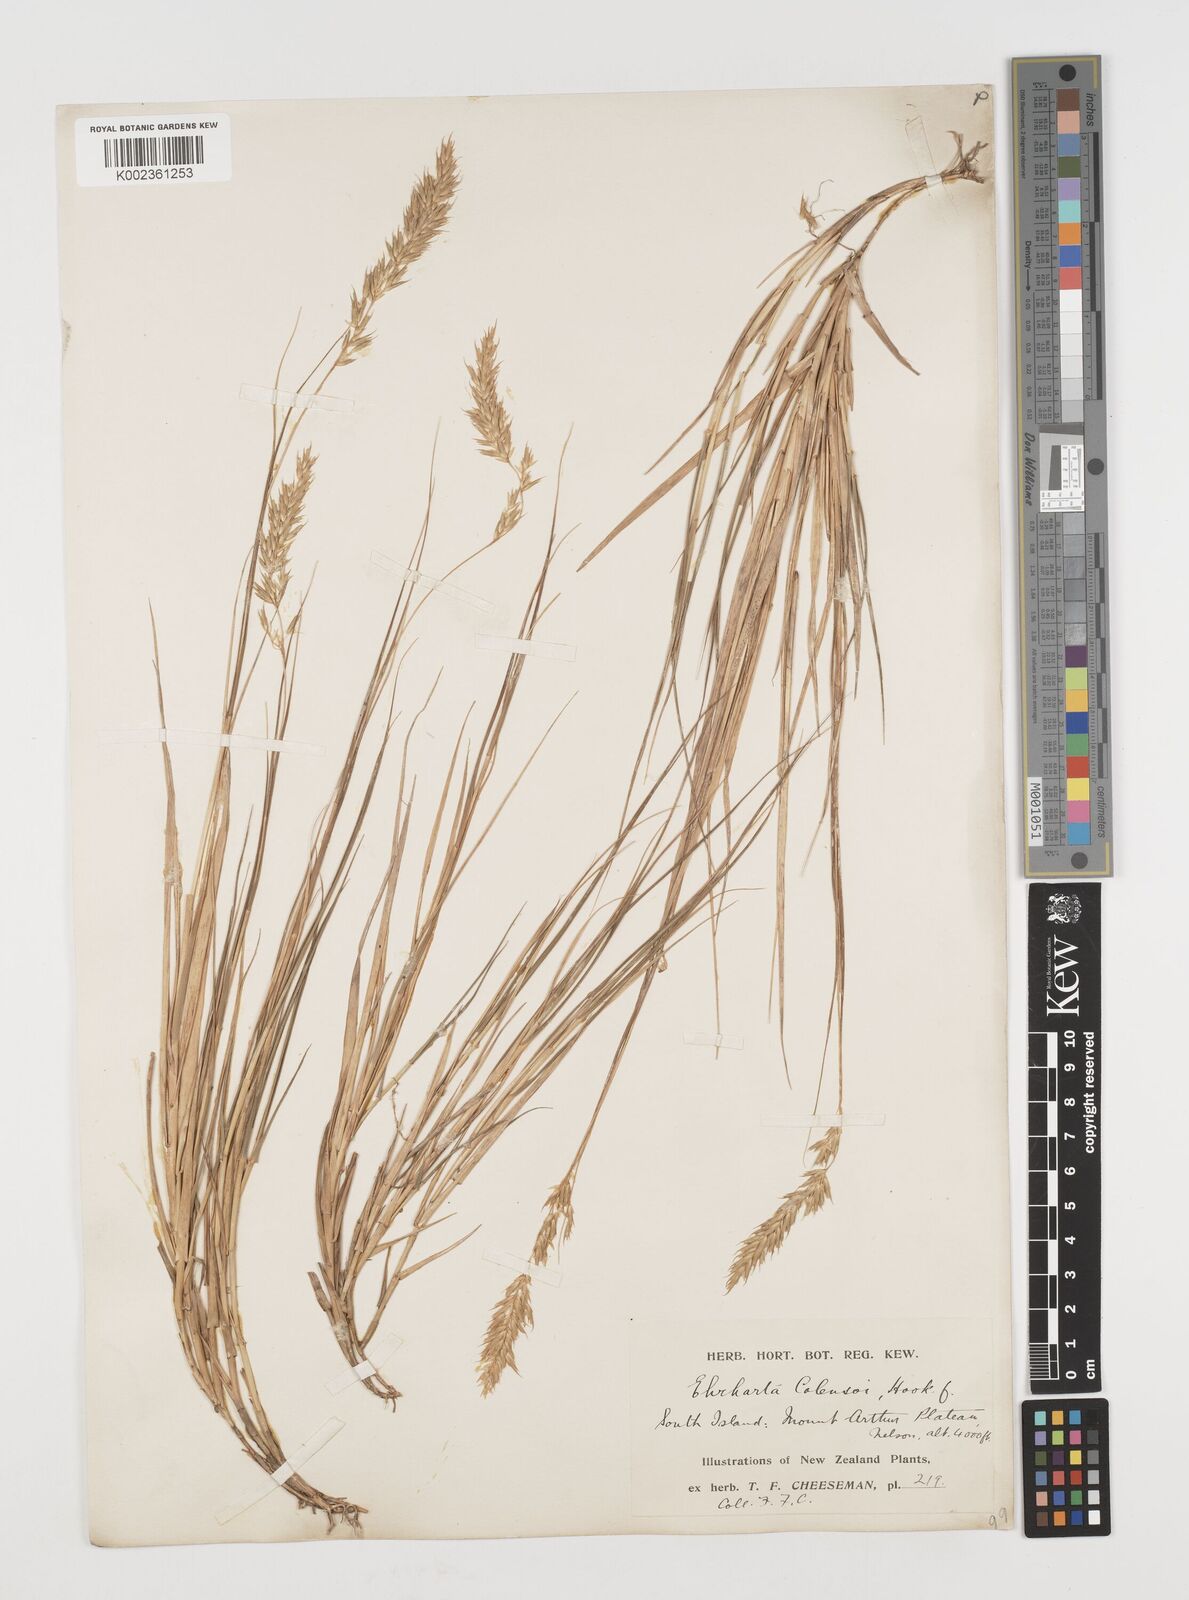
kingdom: Plantae
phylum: Tracheophyta
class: Liliopsida
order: Poales
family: Poaceae
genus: Zotovia
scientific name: Zotovia colensoi
